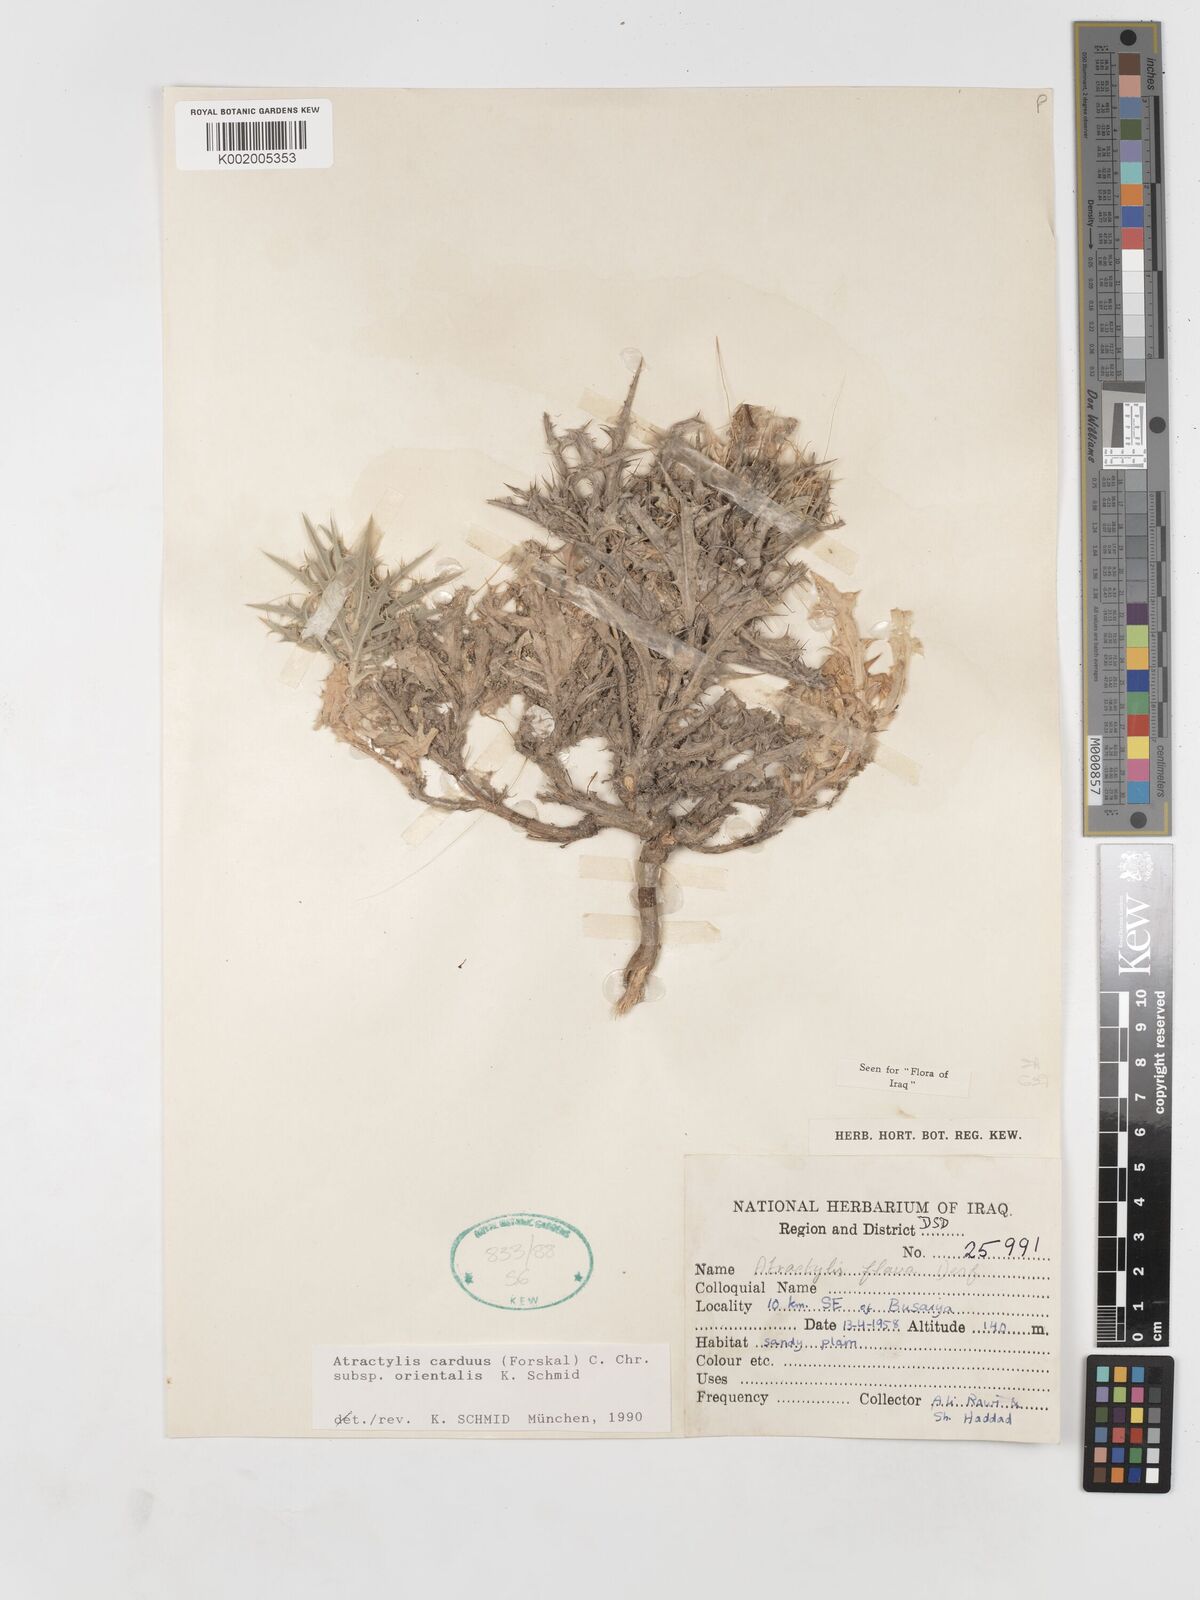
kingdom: Plantae
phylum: Tracheophyta
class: Magnoliopsida
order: Asterales
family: Asteraceae
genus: Atractylis
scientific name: Atractylis carduus
